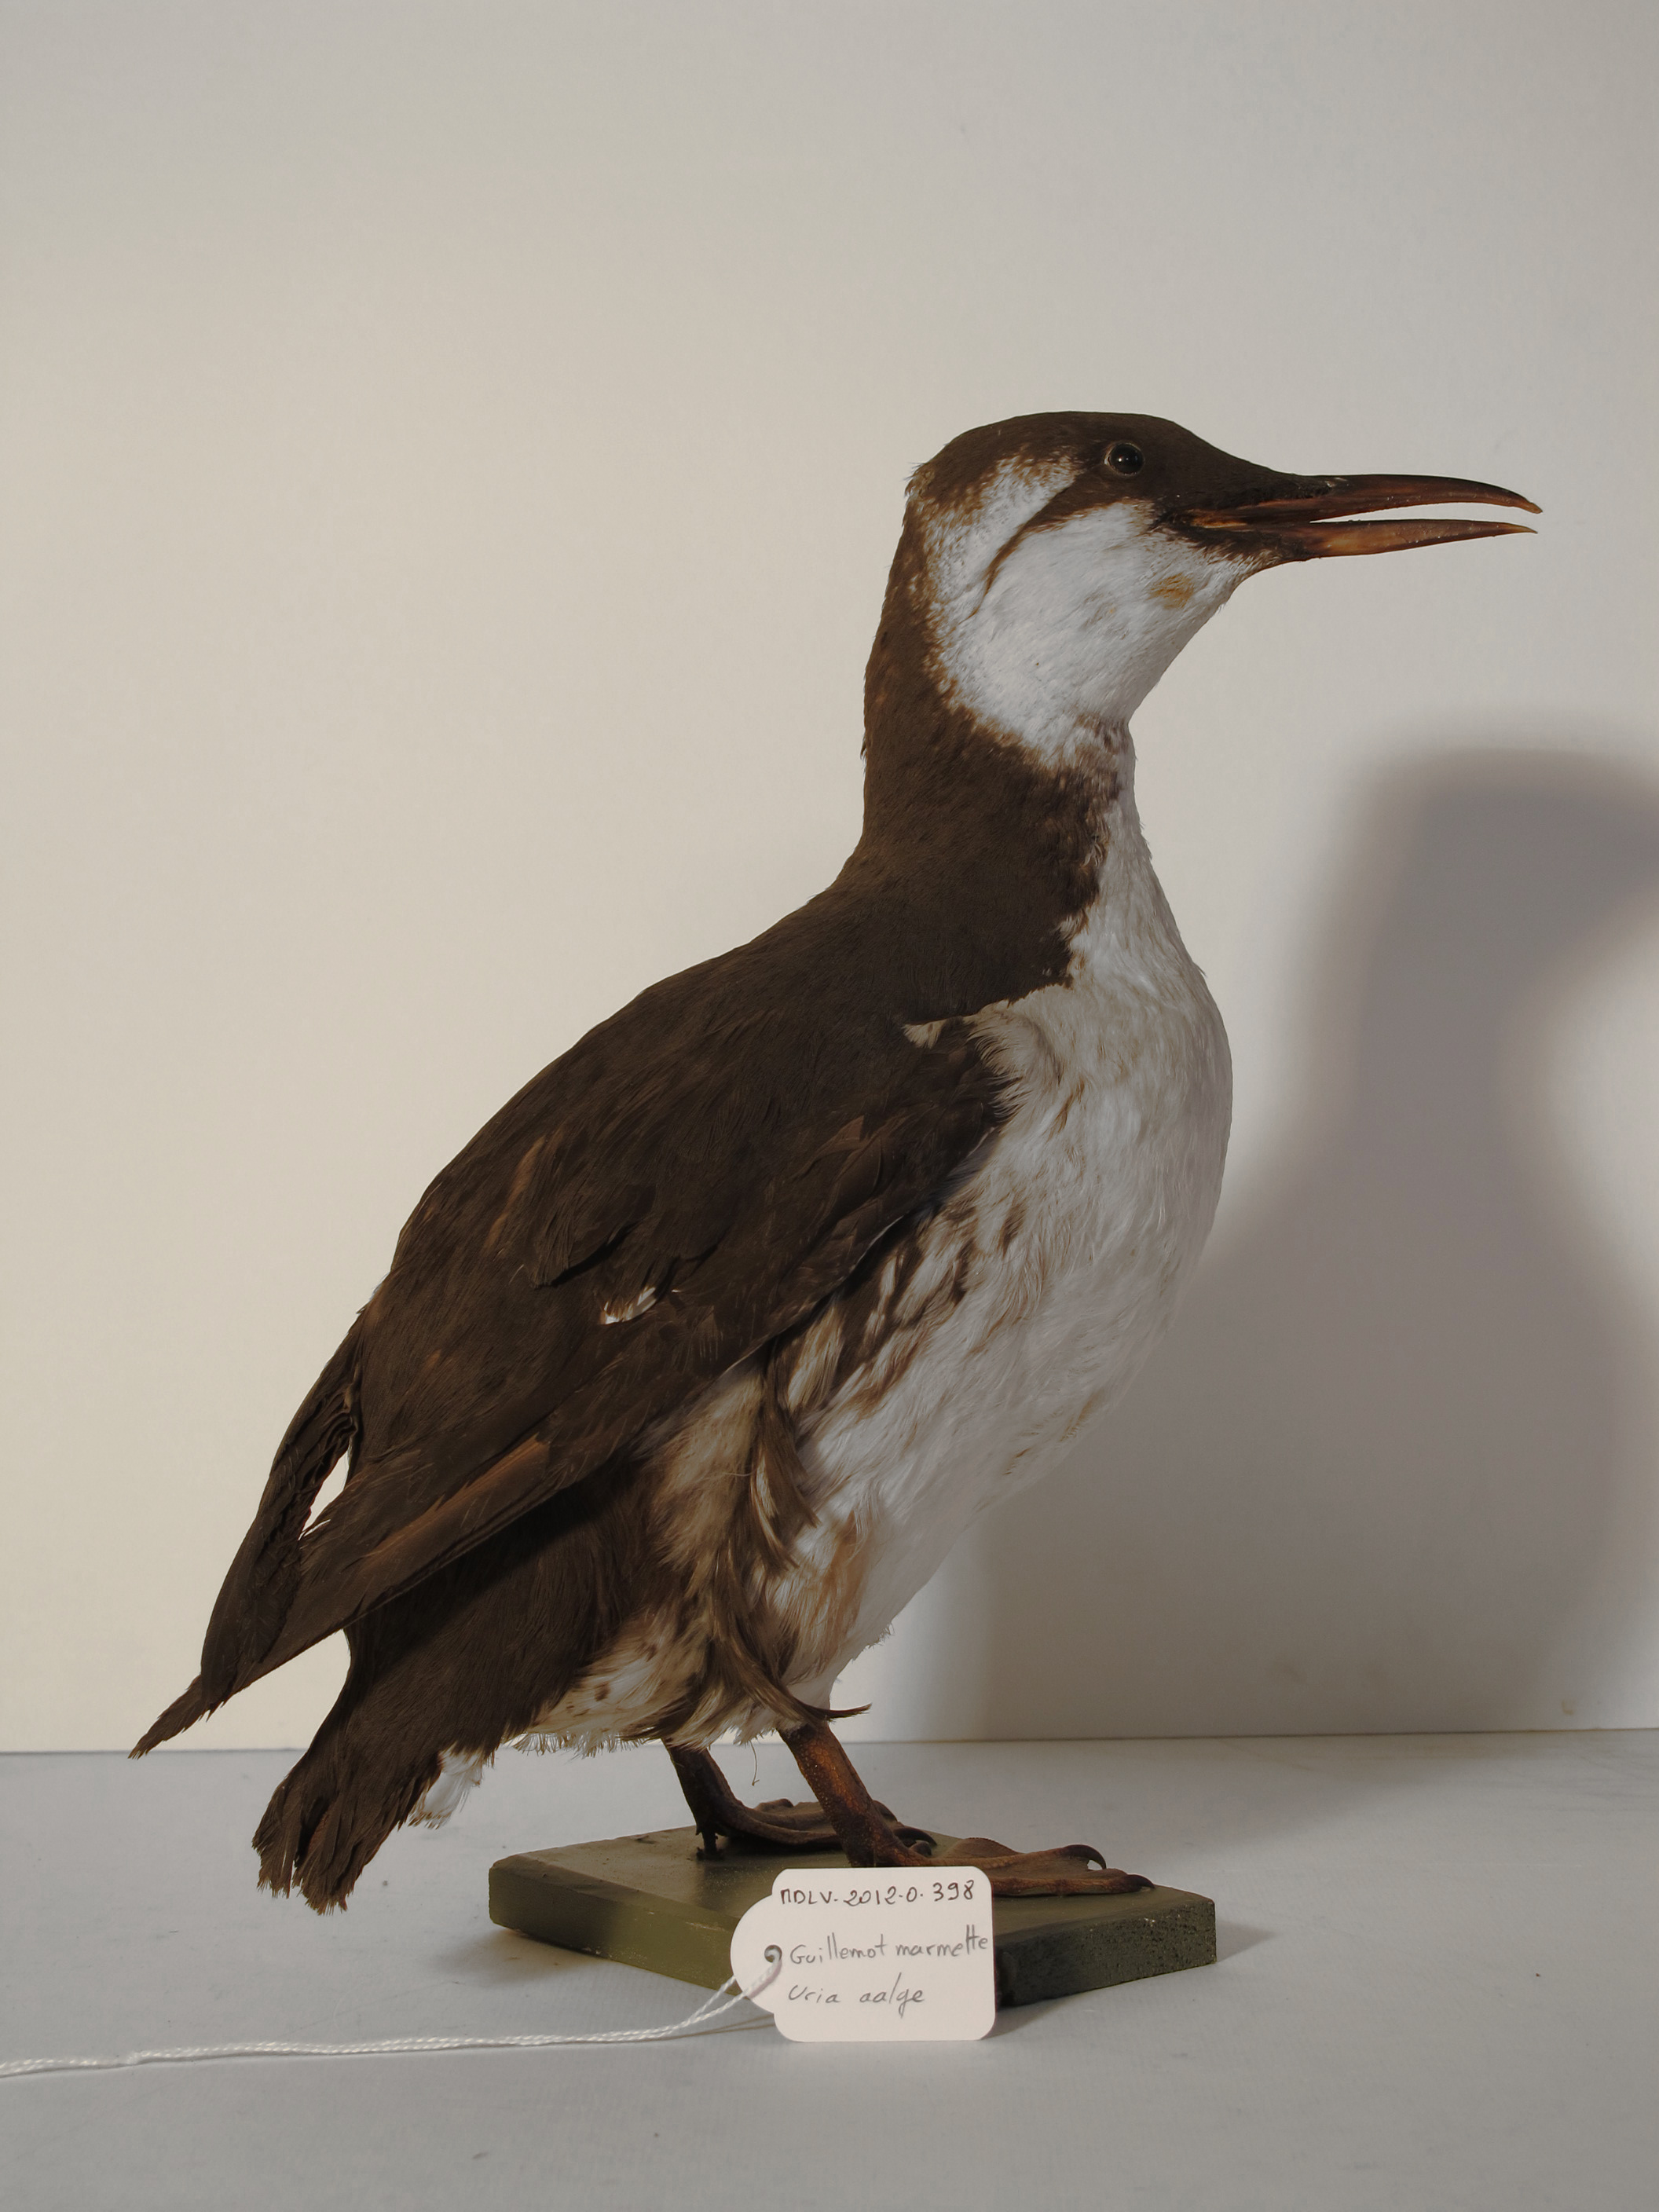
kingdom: Animalia
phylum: Chordata
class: Aves
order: Charadriiformes
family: Alcidae
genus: Uria
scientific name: Uria aalge
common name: Common Murre
